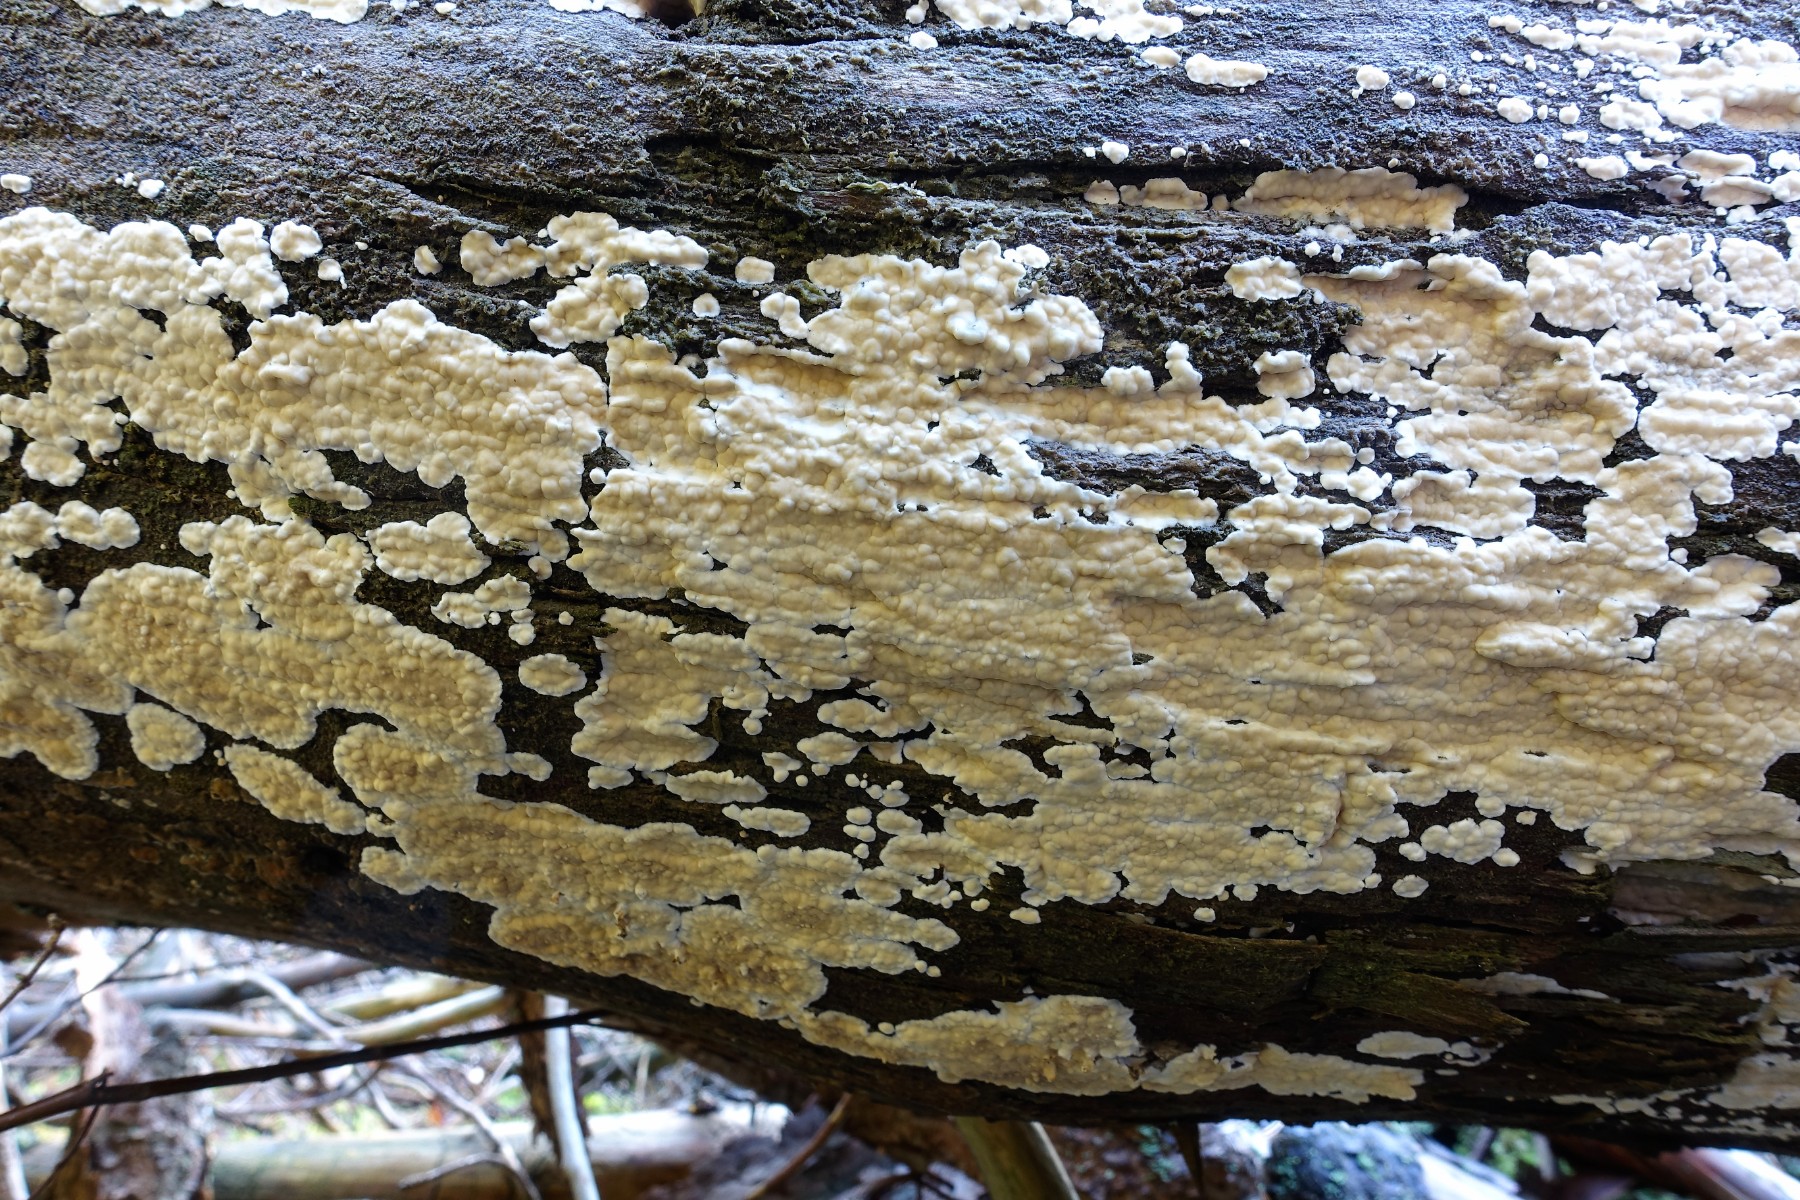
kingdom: Fungi
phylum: Basidiomycota
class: Agaricomycetes
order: Agaricales
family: Physalacriaceae
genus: Cylindrobasidium
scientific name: Cylindrobasidium evolvens
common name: sprækkehinde
